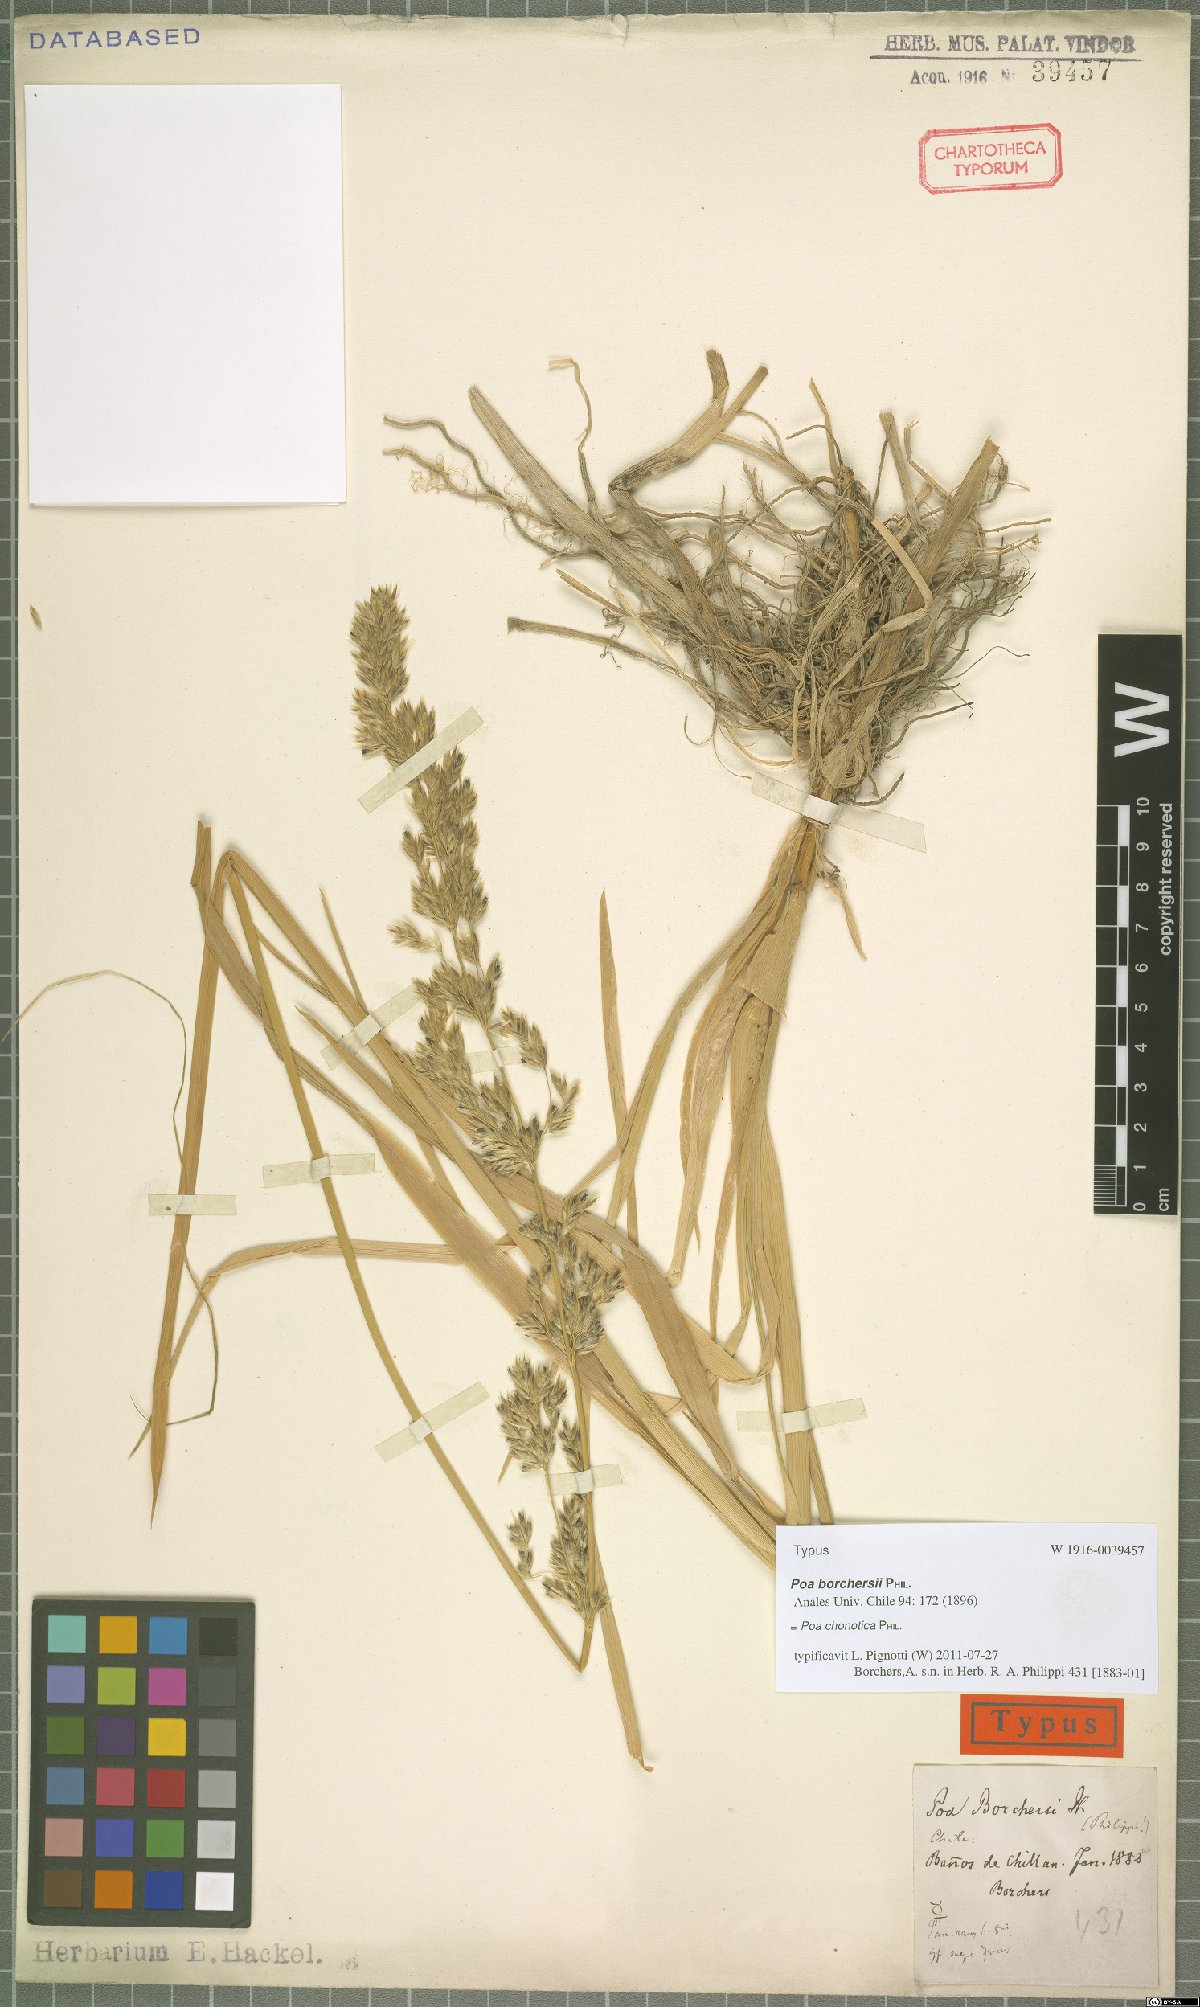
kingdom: Plantae
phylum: Tracheophyta
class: Liliopsida
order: Poales
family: Poaceae
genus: Nicoraepoa
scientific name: Nicoraepoa chonotica
